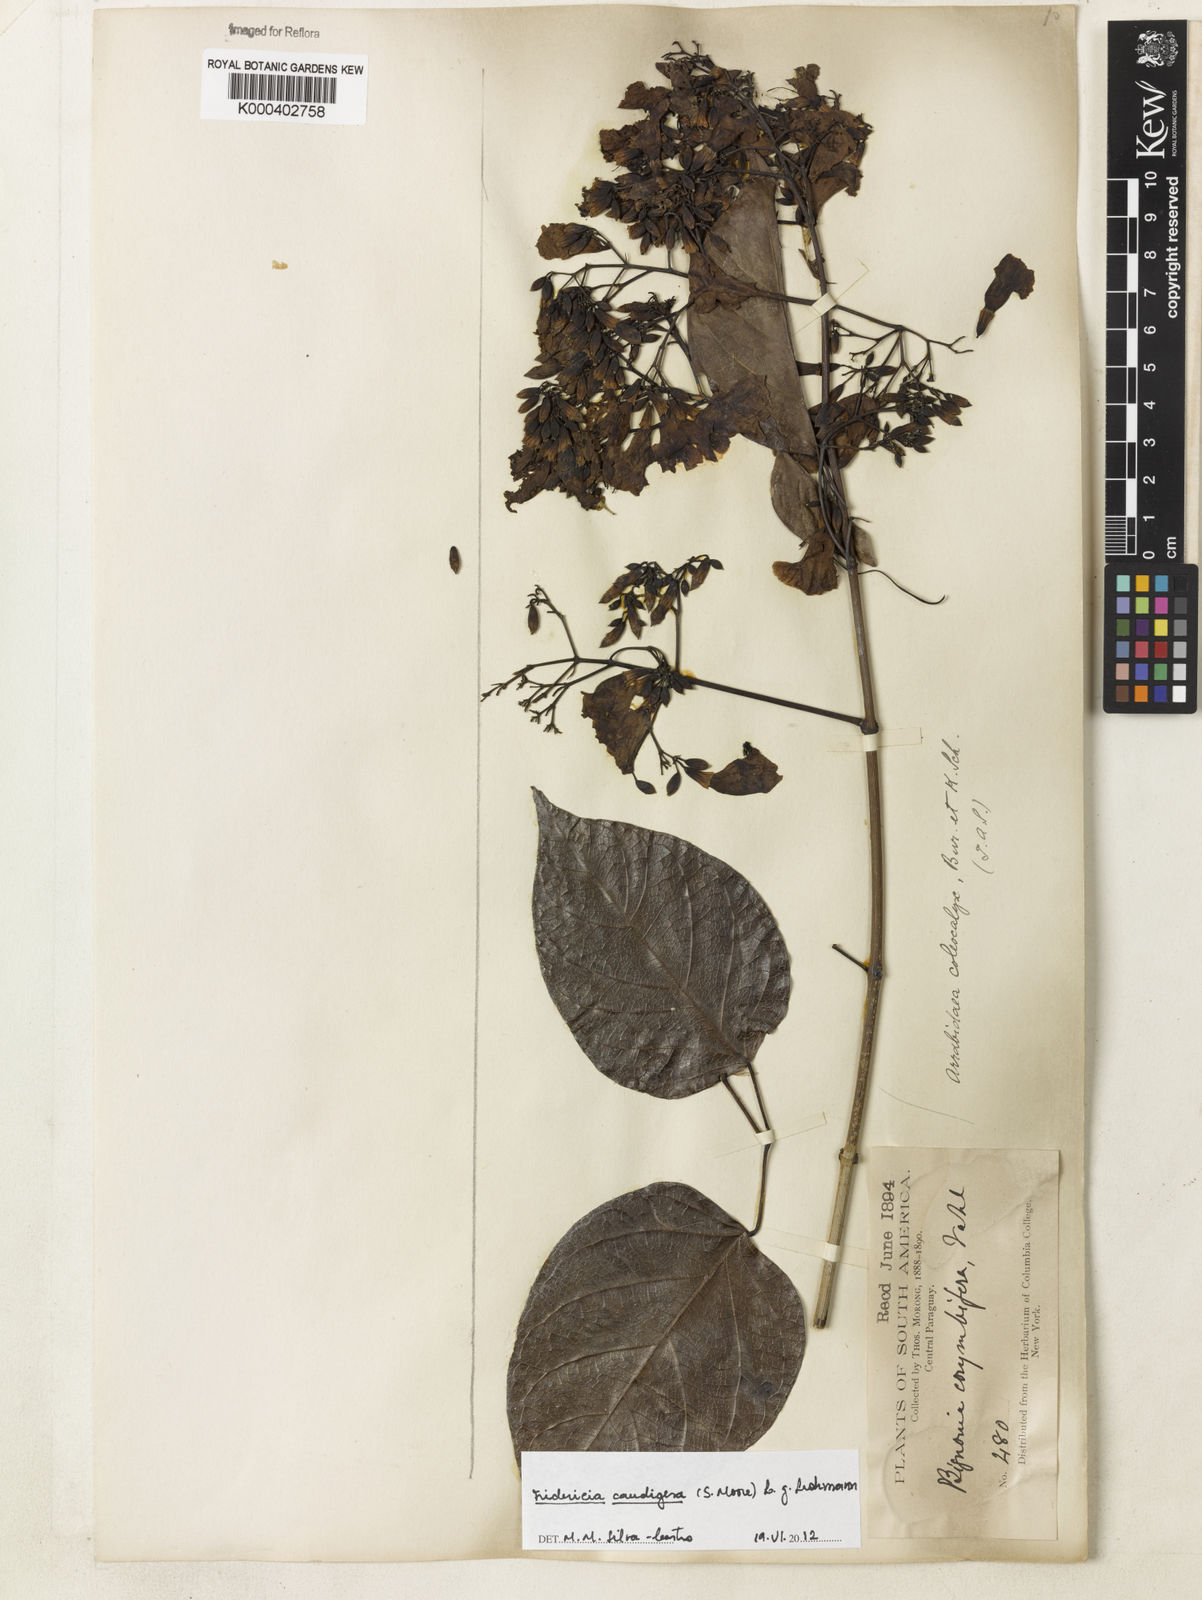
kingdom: Plantae
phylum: Tracheophyta
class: Magnoliopsida
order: Lamiales
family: Bignoniaceae
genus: Fridericia
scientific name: Fridericia caudigera
